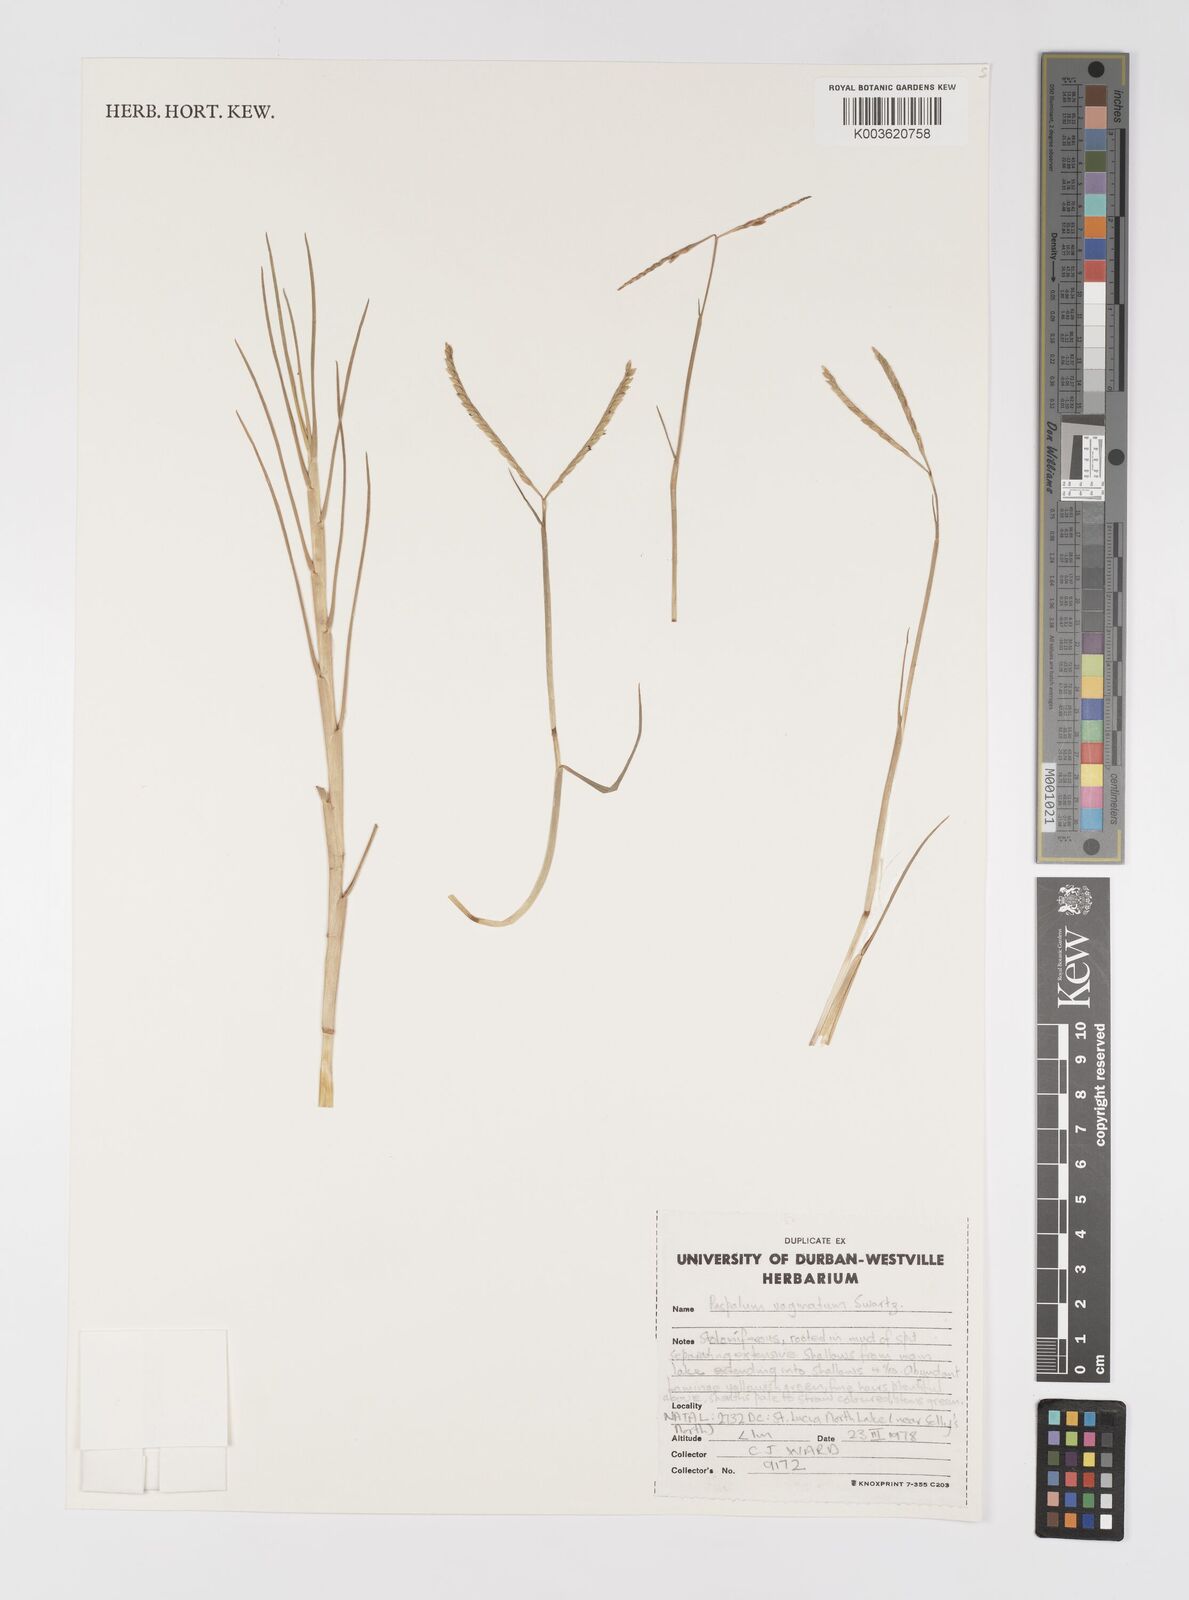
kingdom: Plantae
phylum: Tracheophyta
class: Liliopsida
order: Poales
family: Poaceae
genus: Paspalum
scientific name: Paspalum vaginatum
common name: Seashore paspalum
